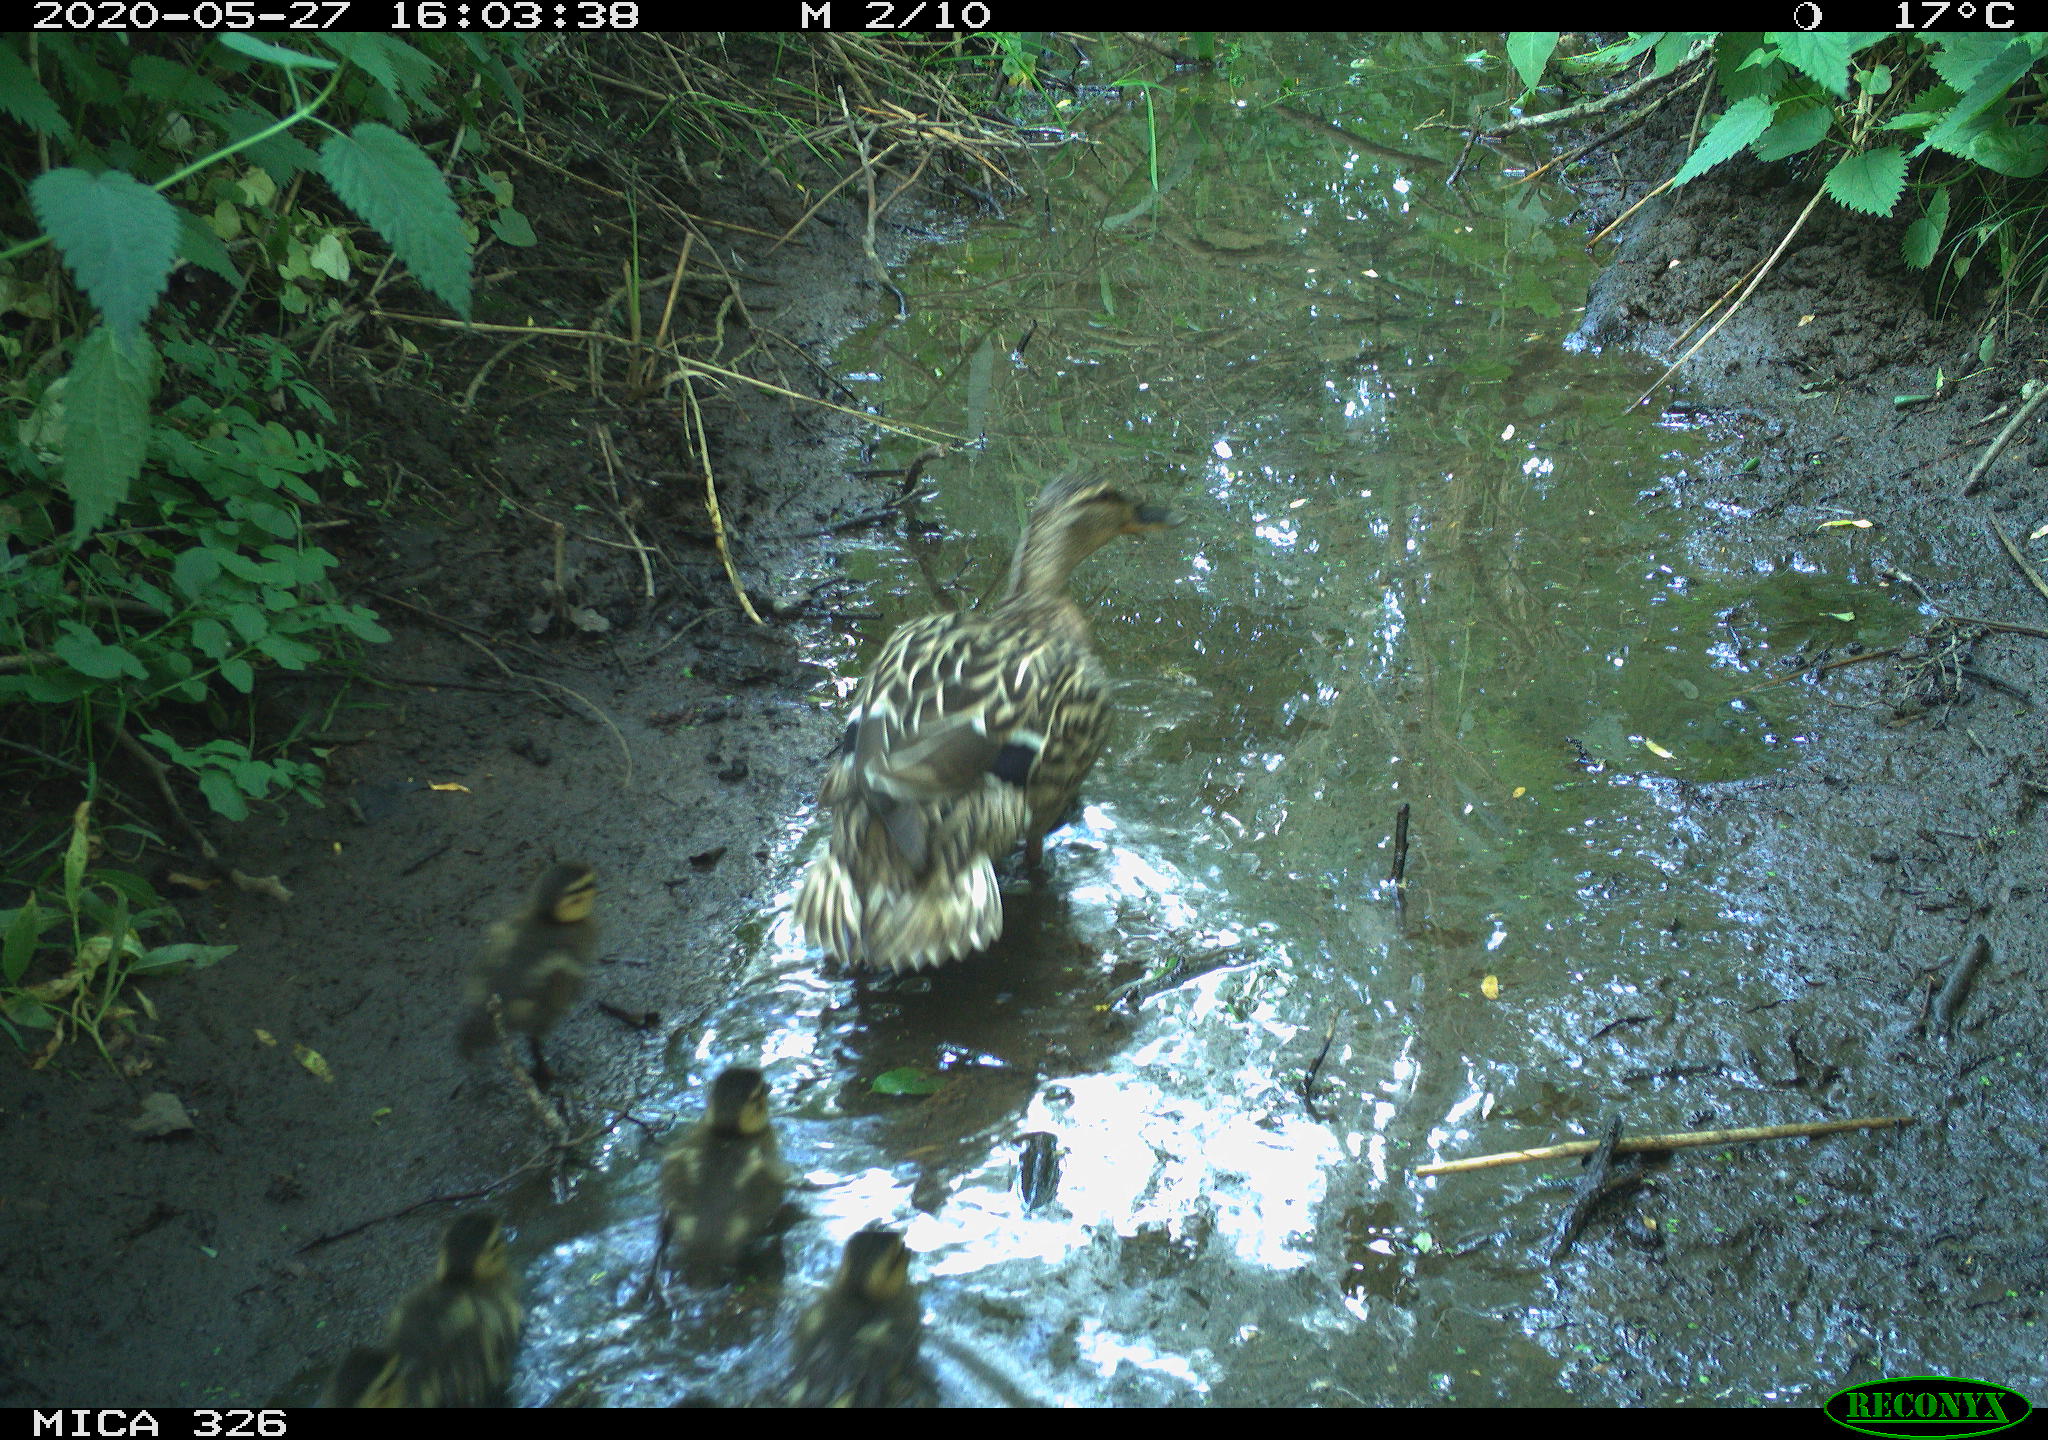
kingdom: Animalia
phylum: Chordata
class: Aves
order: Anseriformes
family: Anatidae
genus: Anas
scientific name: Anas platyrhynchos
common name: Mallard
